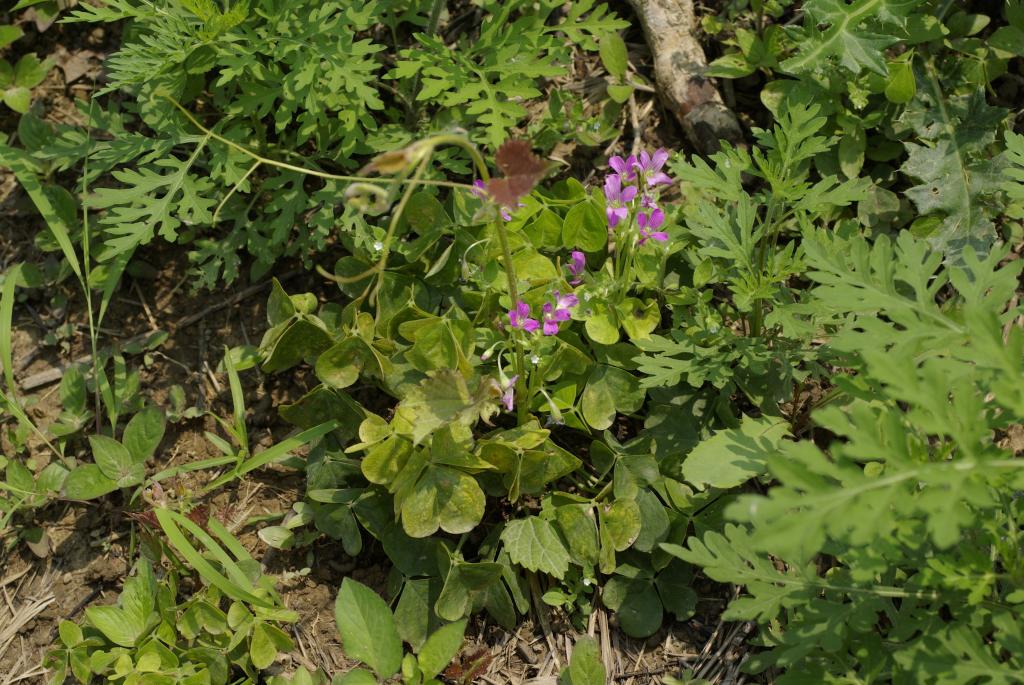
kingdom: Plantae
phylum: Tracheophyta
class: Magnoliopsida
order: Oxalidales
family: Oxalidaceae
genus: Oxalis
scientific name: Oxalis debilis
